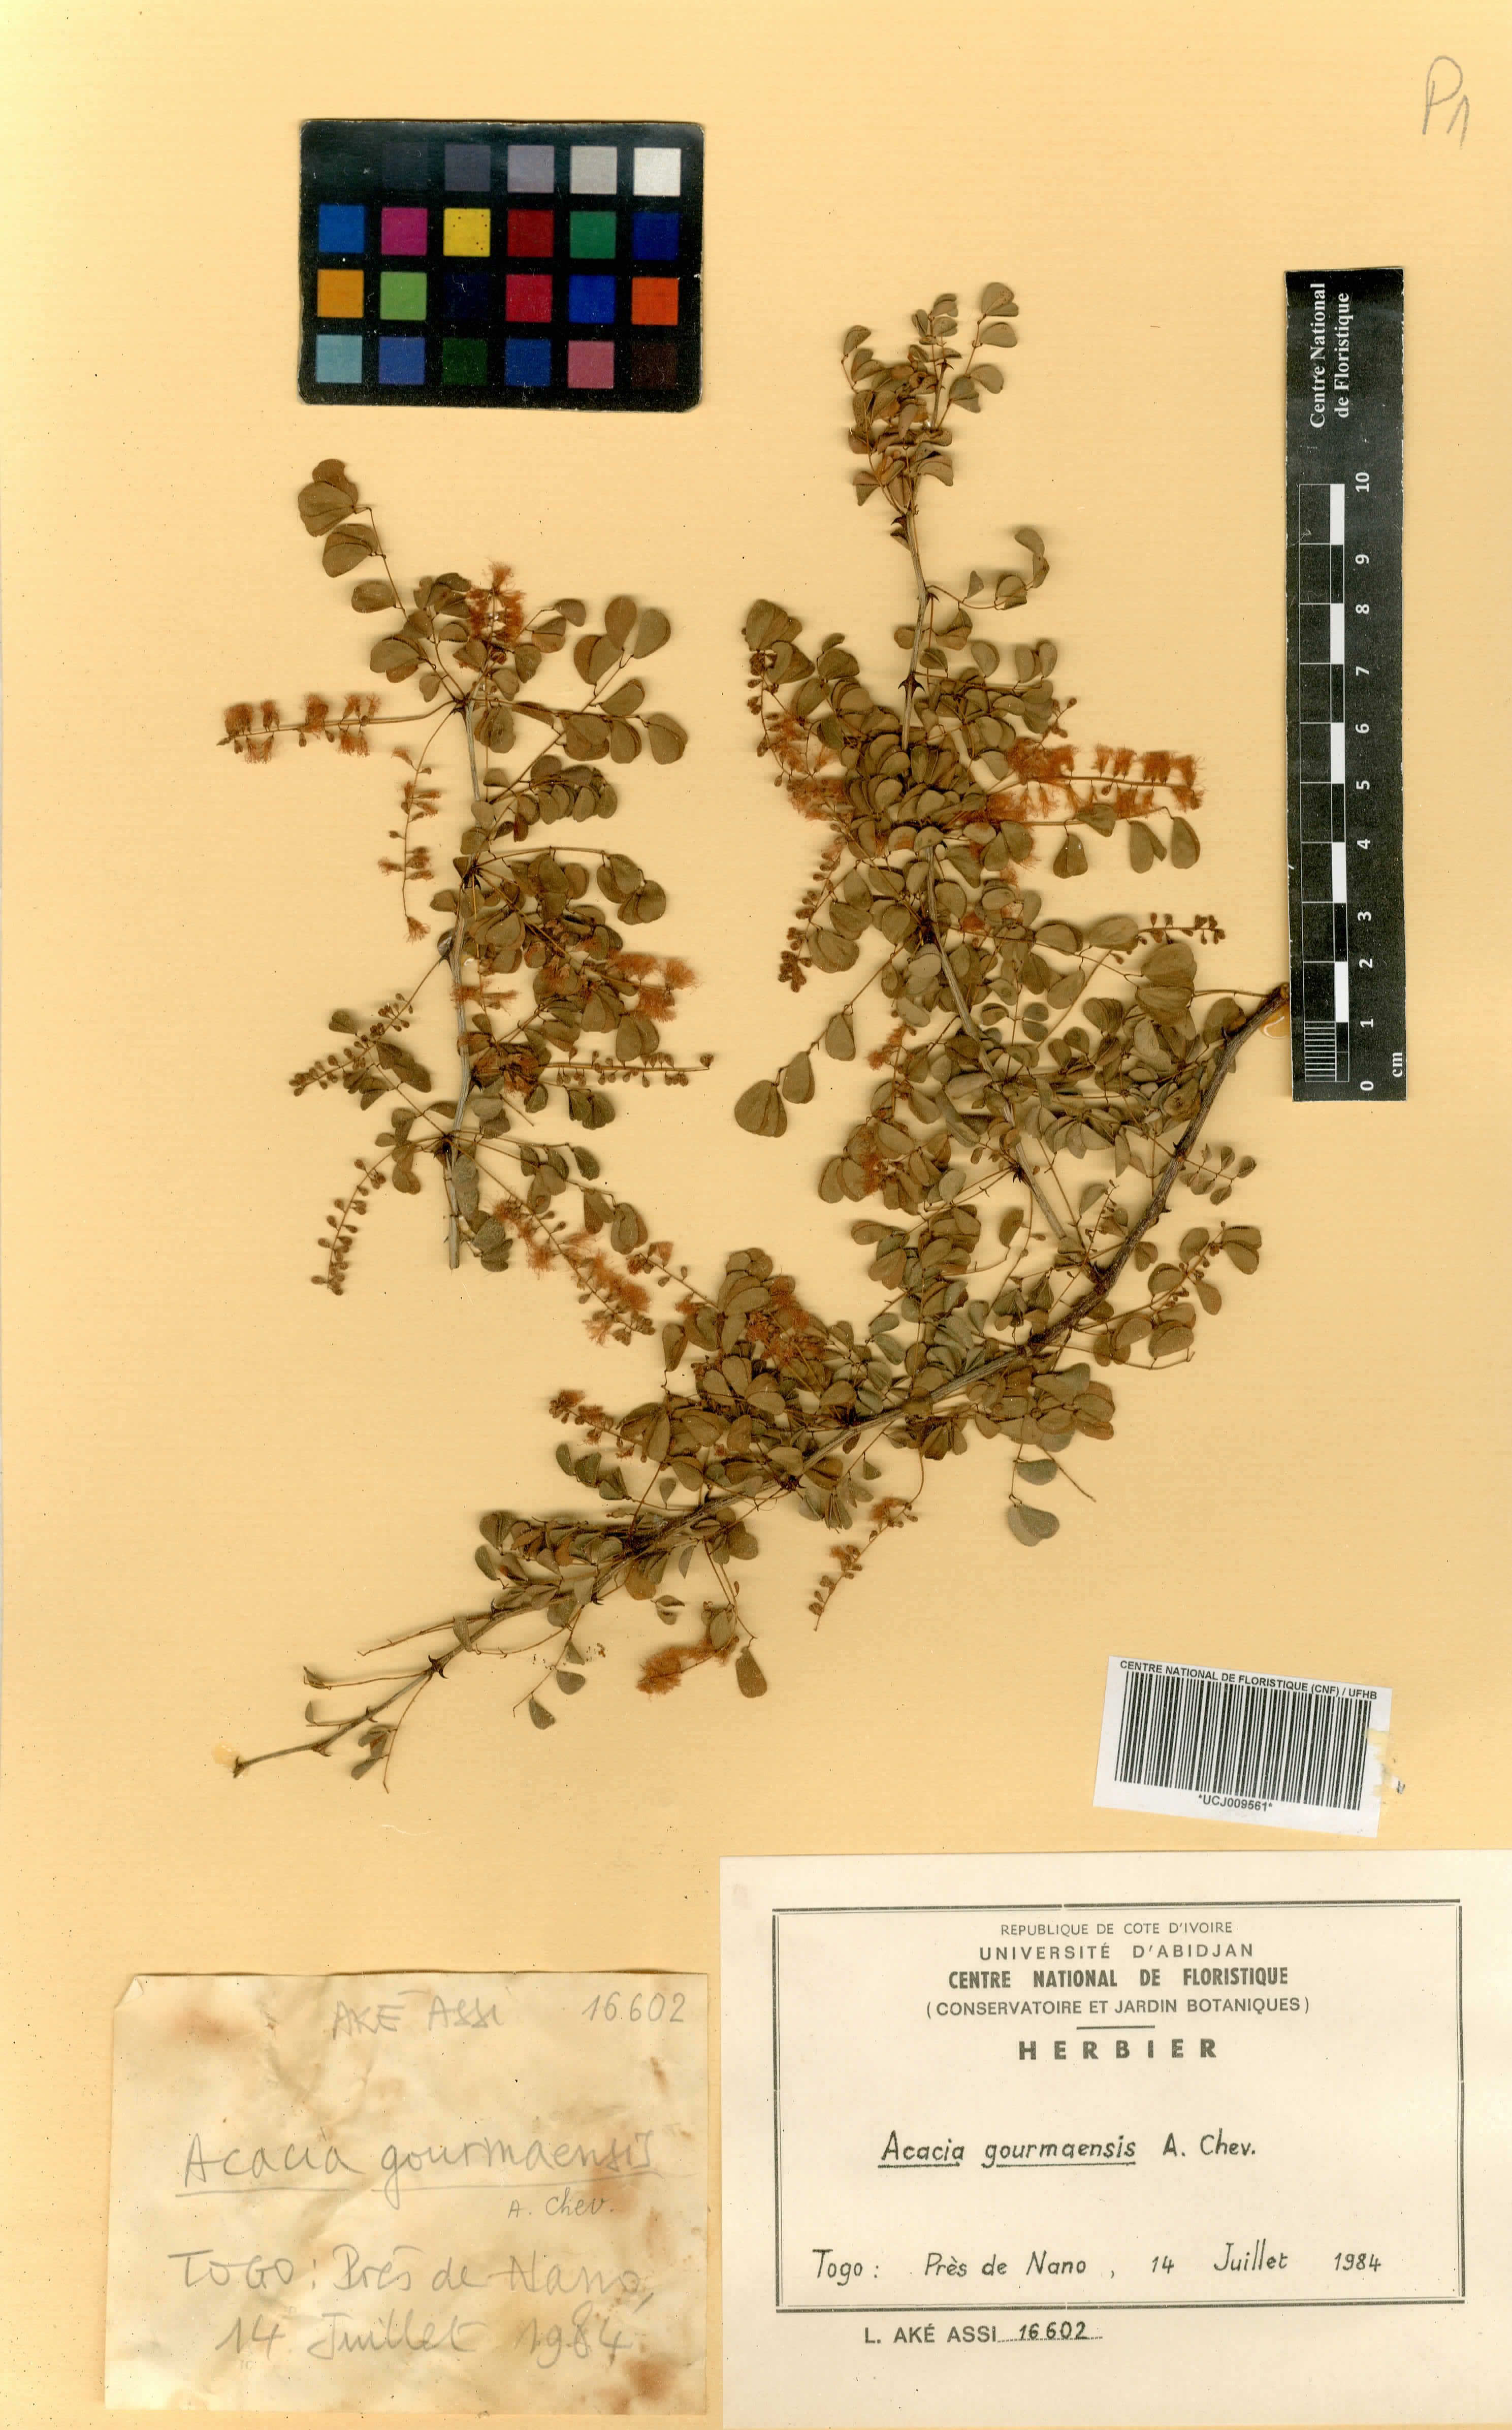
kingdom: Plantae
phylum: Tracheophyta
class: Magnoliopsida
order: Fabales
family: Fabaceae
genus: Senegalia
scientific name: Senegalia gourmaensis
